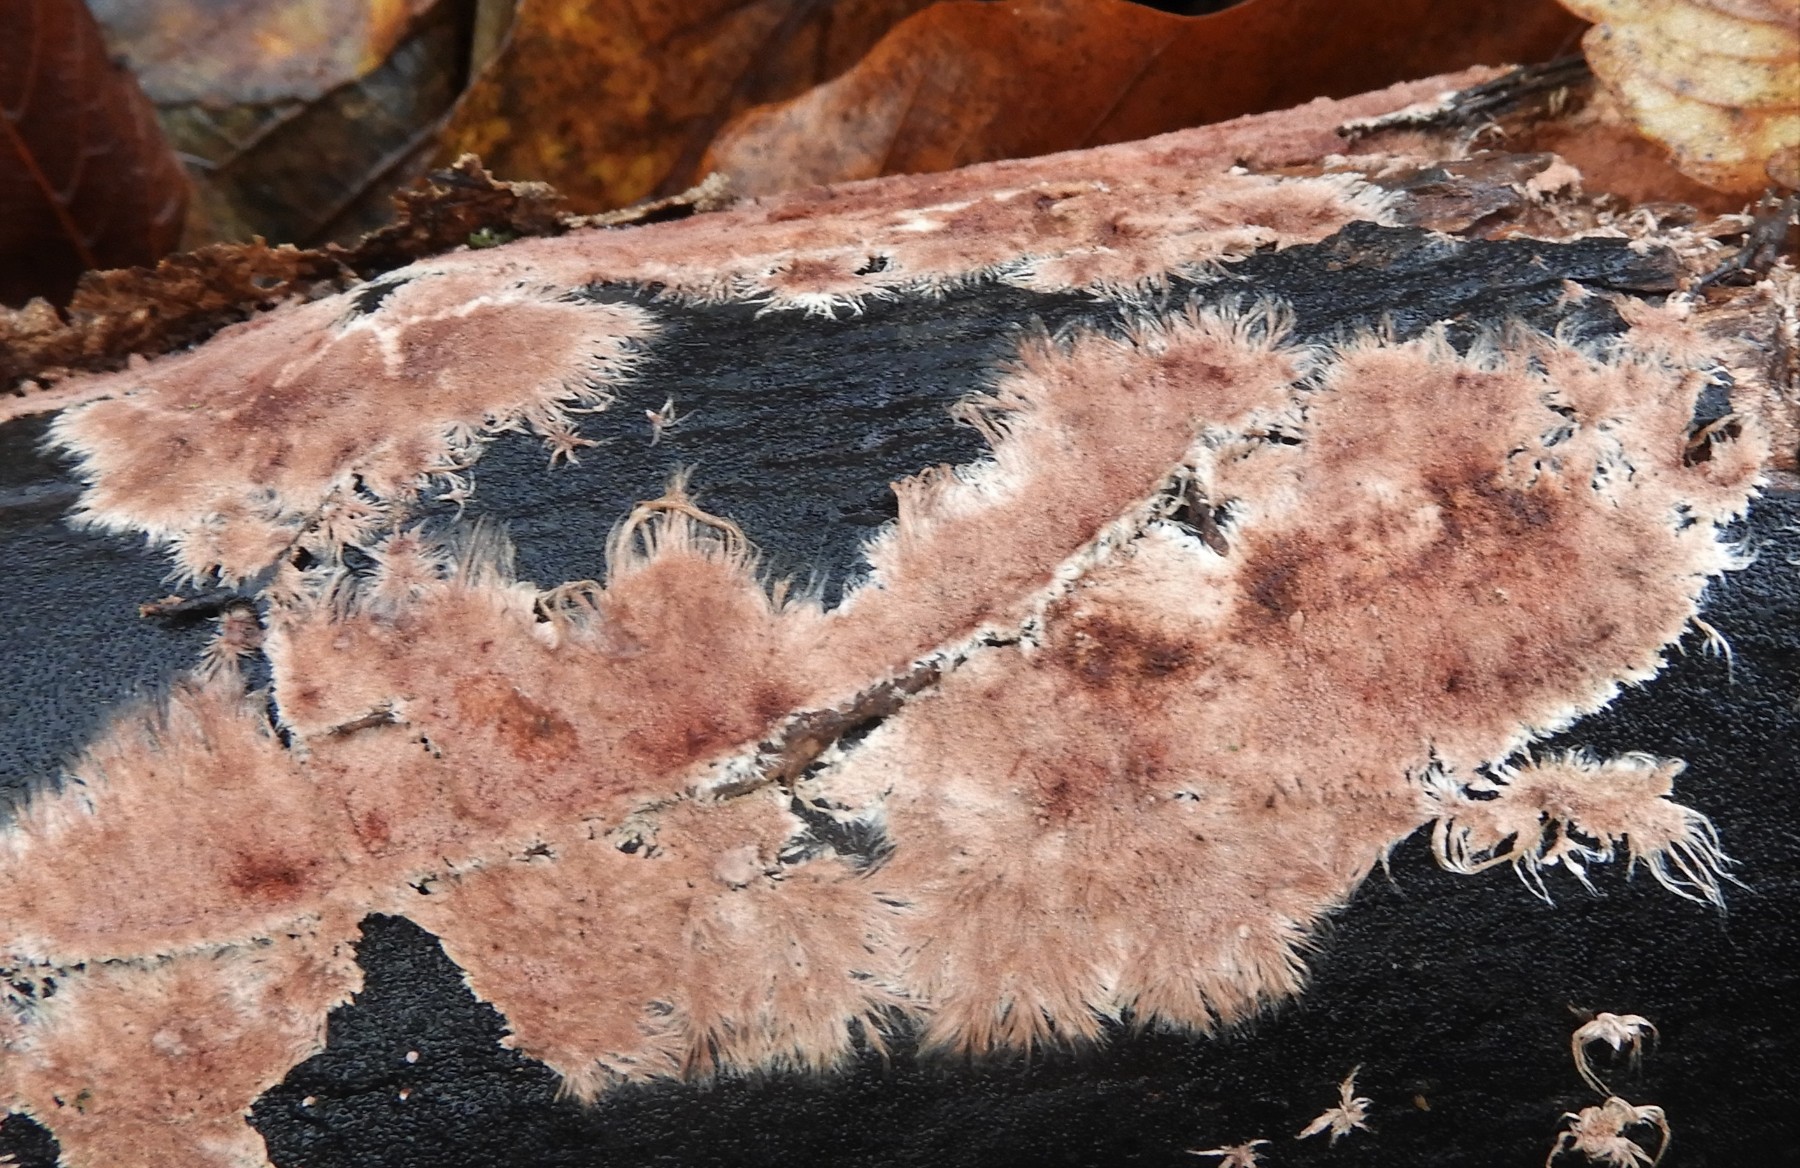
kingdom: Fungi
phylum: Basidiomycota
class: Agaricomycetes
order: Polyporales
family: Steccherinaceae
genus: Steccherinum
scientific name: Steccherinum fimbriatum
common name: trådet skønpig
